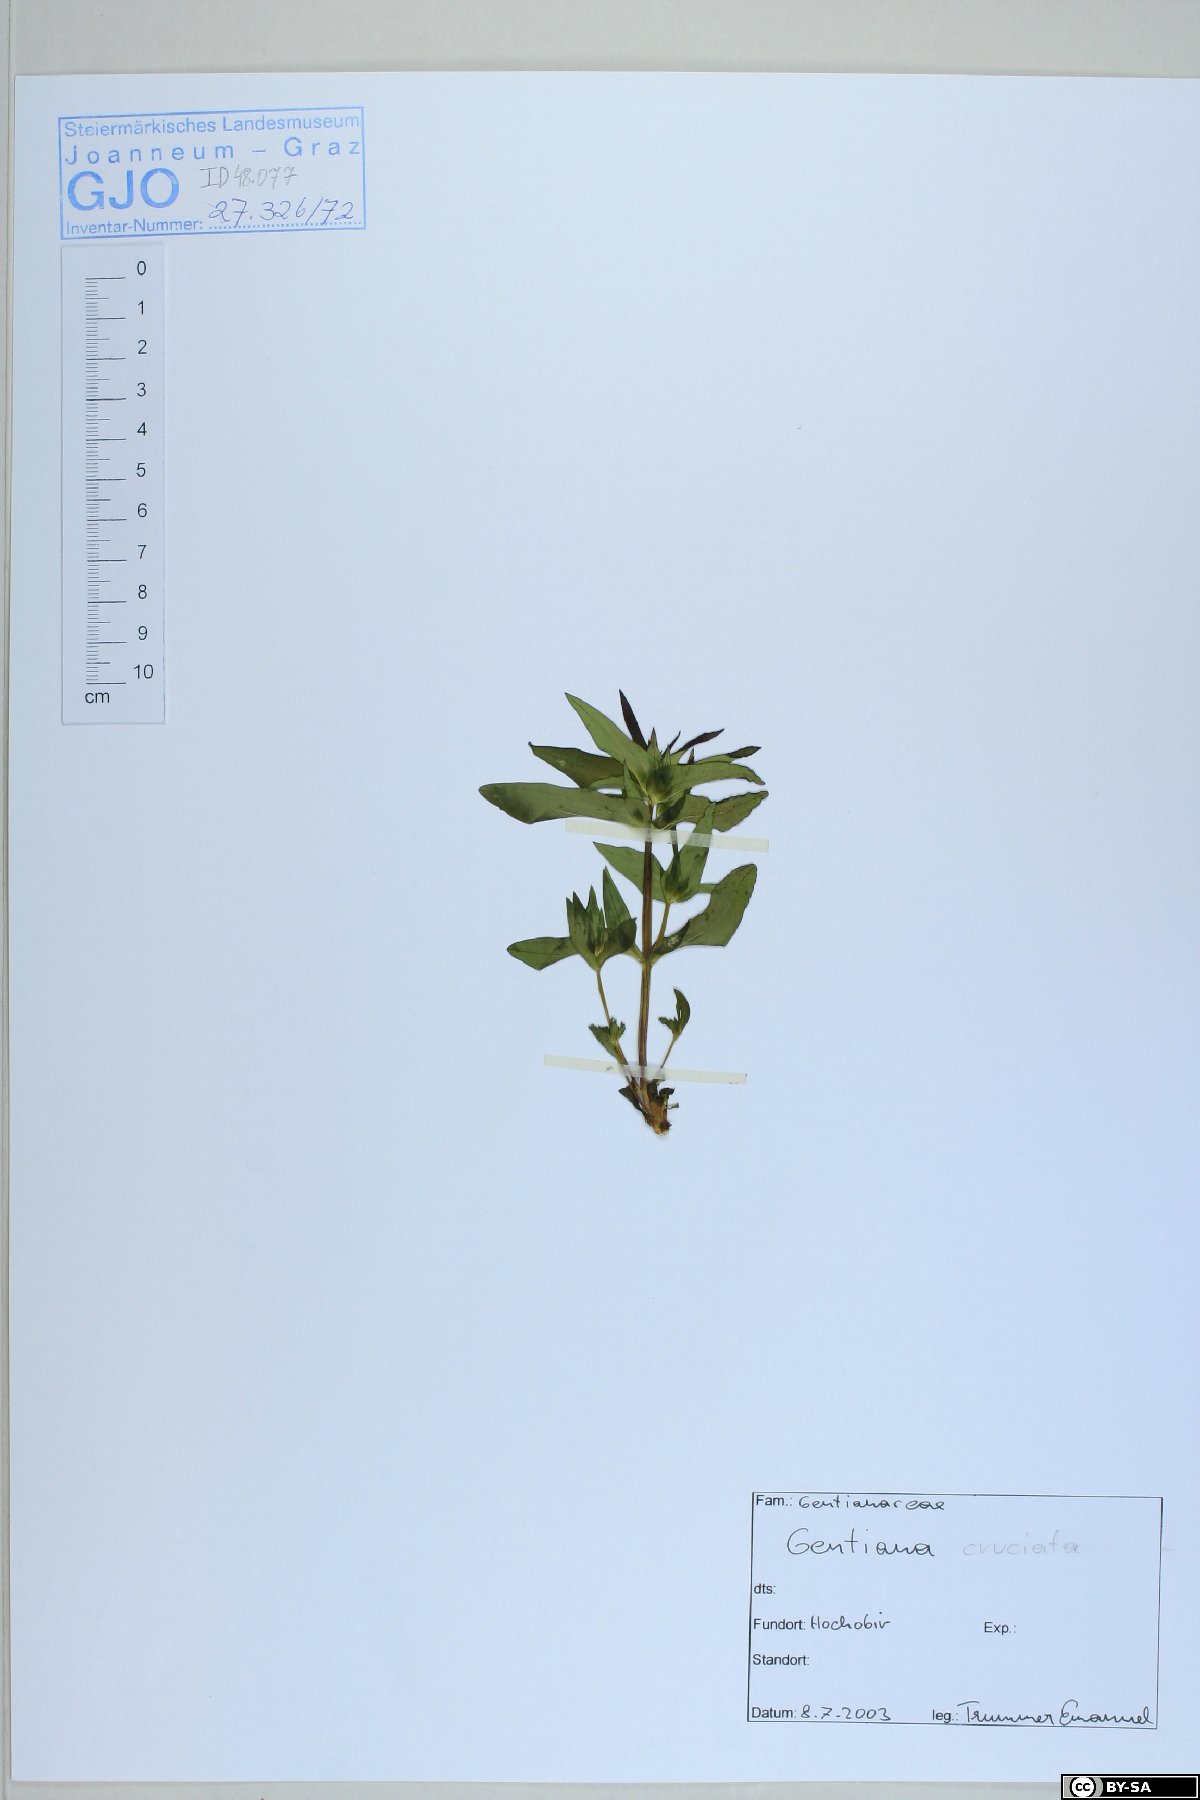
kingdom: Plantae
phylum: Tracheophyta
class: Magnoliopsida
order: Gentianales
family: Gentianaceae
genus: Gentiana
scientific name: Gentiana cruciata
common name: Cross gentian
